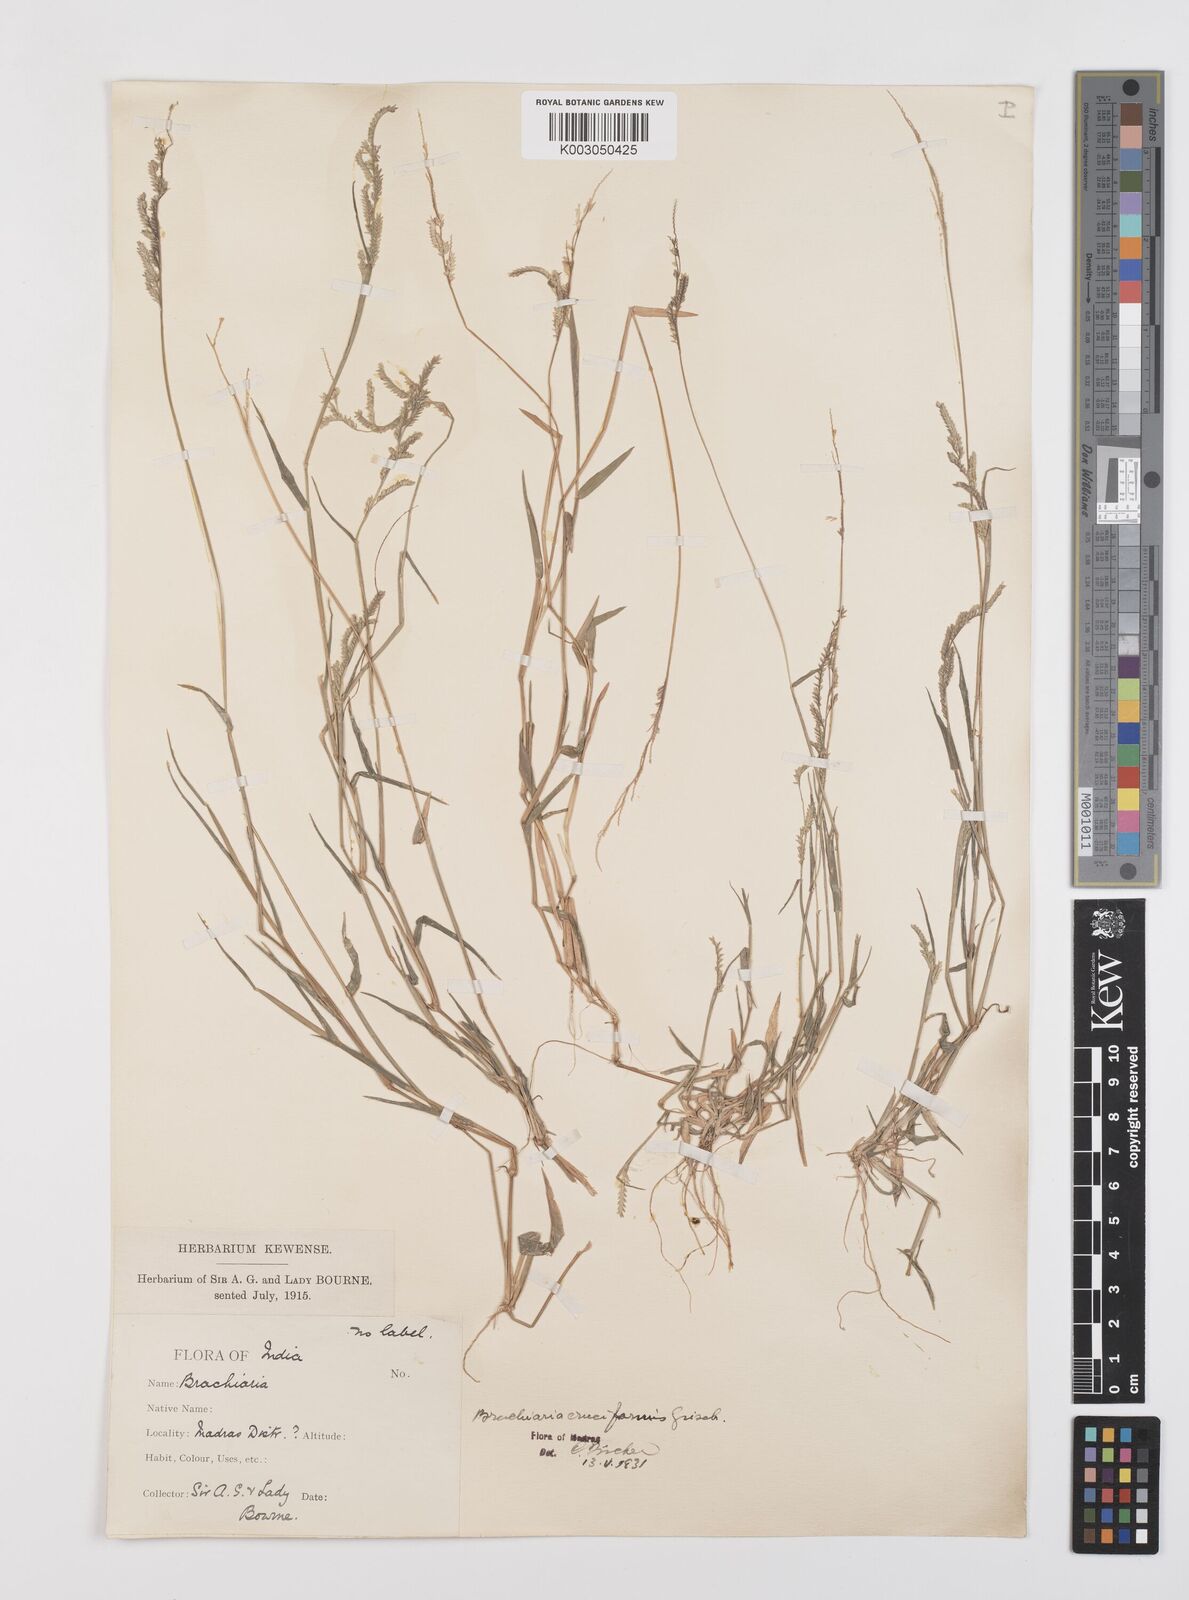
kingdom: Plantae
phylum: Tracheophyta
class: Liliopsida
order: Poales
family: Poaceae
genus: Moorochloa
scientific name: Moorochloa eruciformis
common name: Sweet signalgrass
